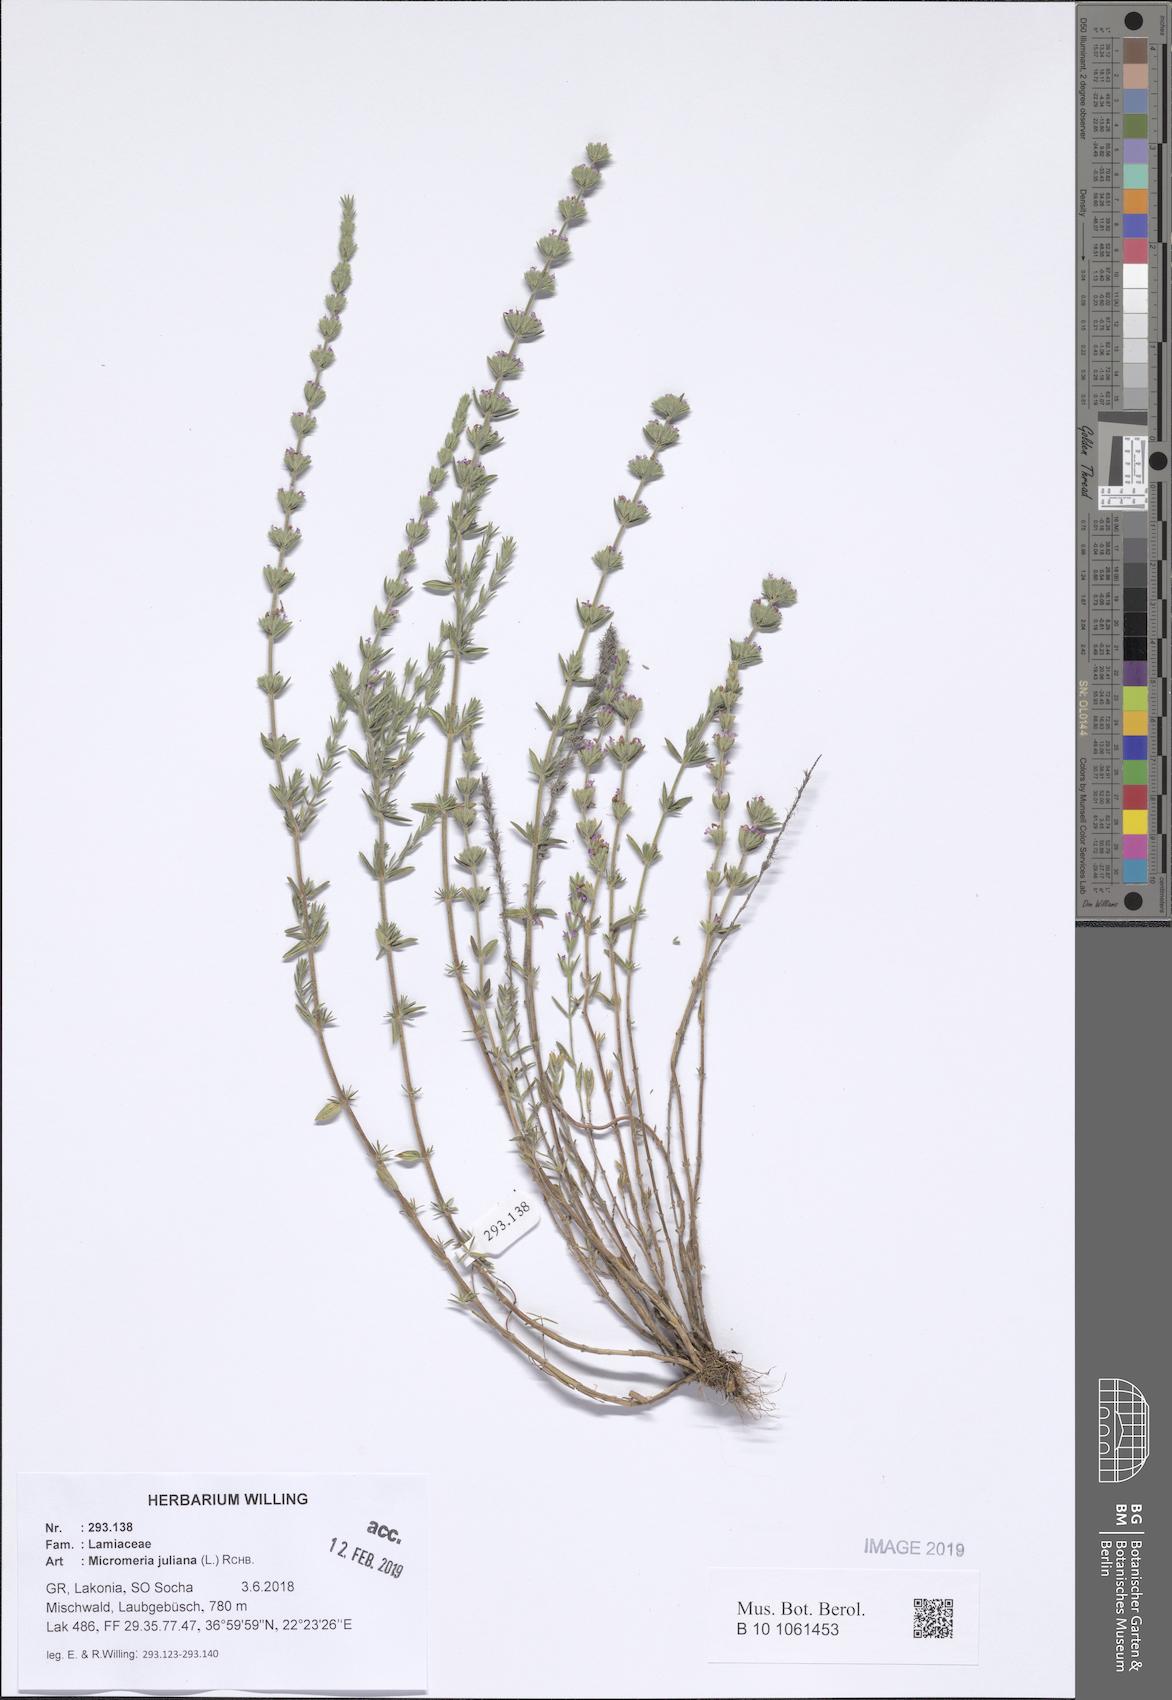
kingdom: Plantae
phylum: Tracheophyta
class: Magnoliopsida
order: Lamiales
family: Lamiaceae
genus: Micromeria
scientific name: Micromeria juliana
